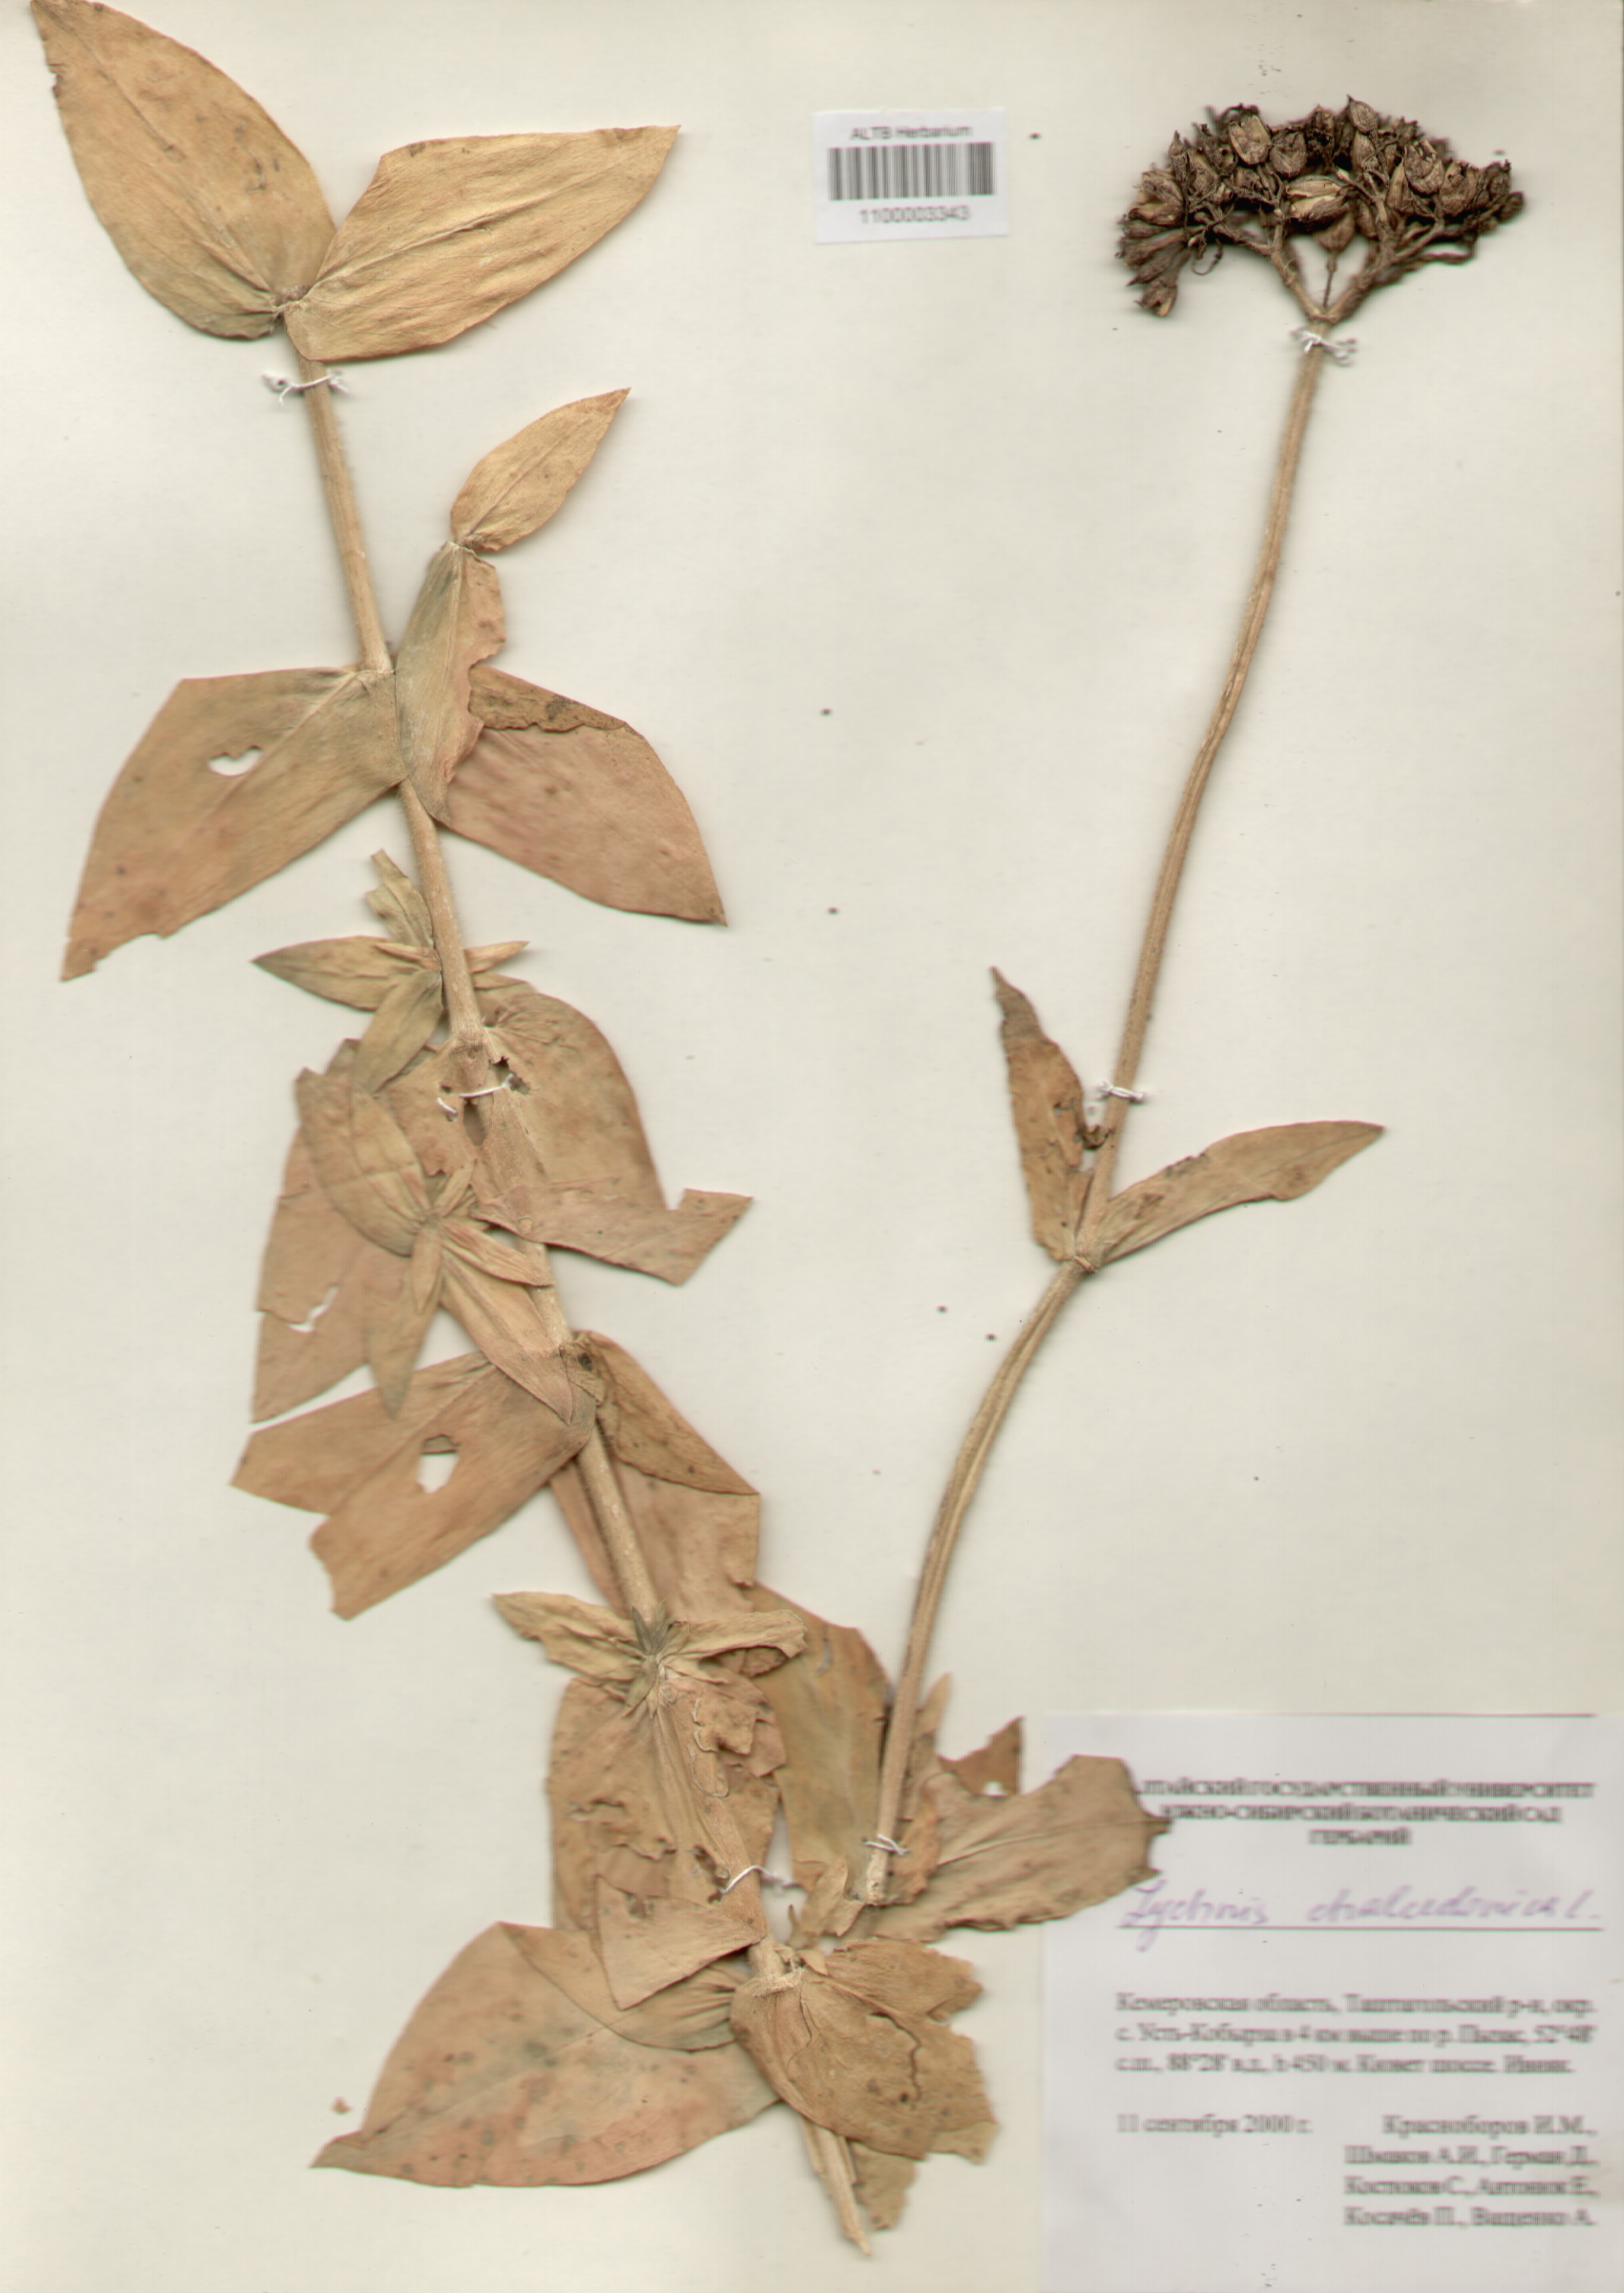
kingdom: Plantae
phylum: Tracheophyta
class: Magnoliopsida
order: Caryophyllales
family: Caryophyllaceae
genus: Silene
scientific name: Silene chalcedonica
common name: Maltese-cross
